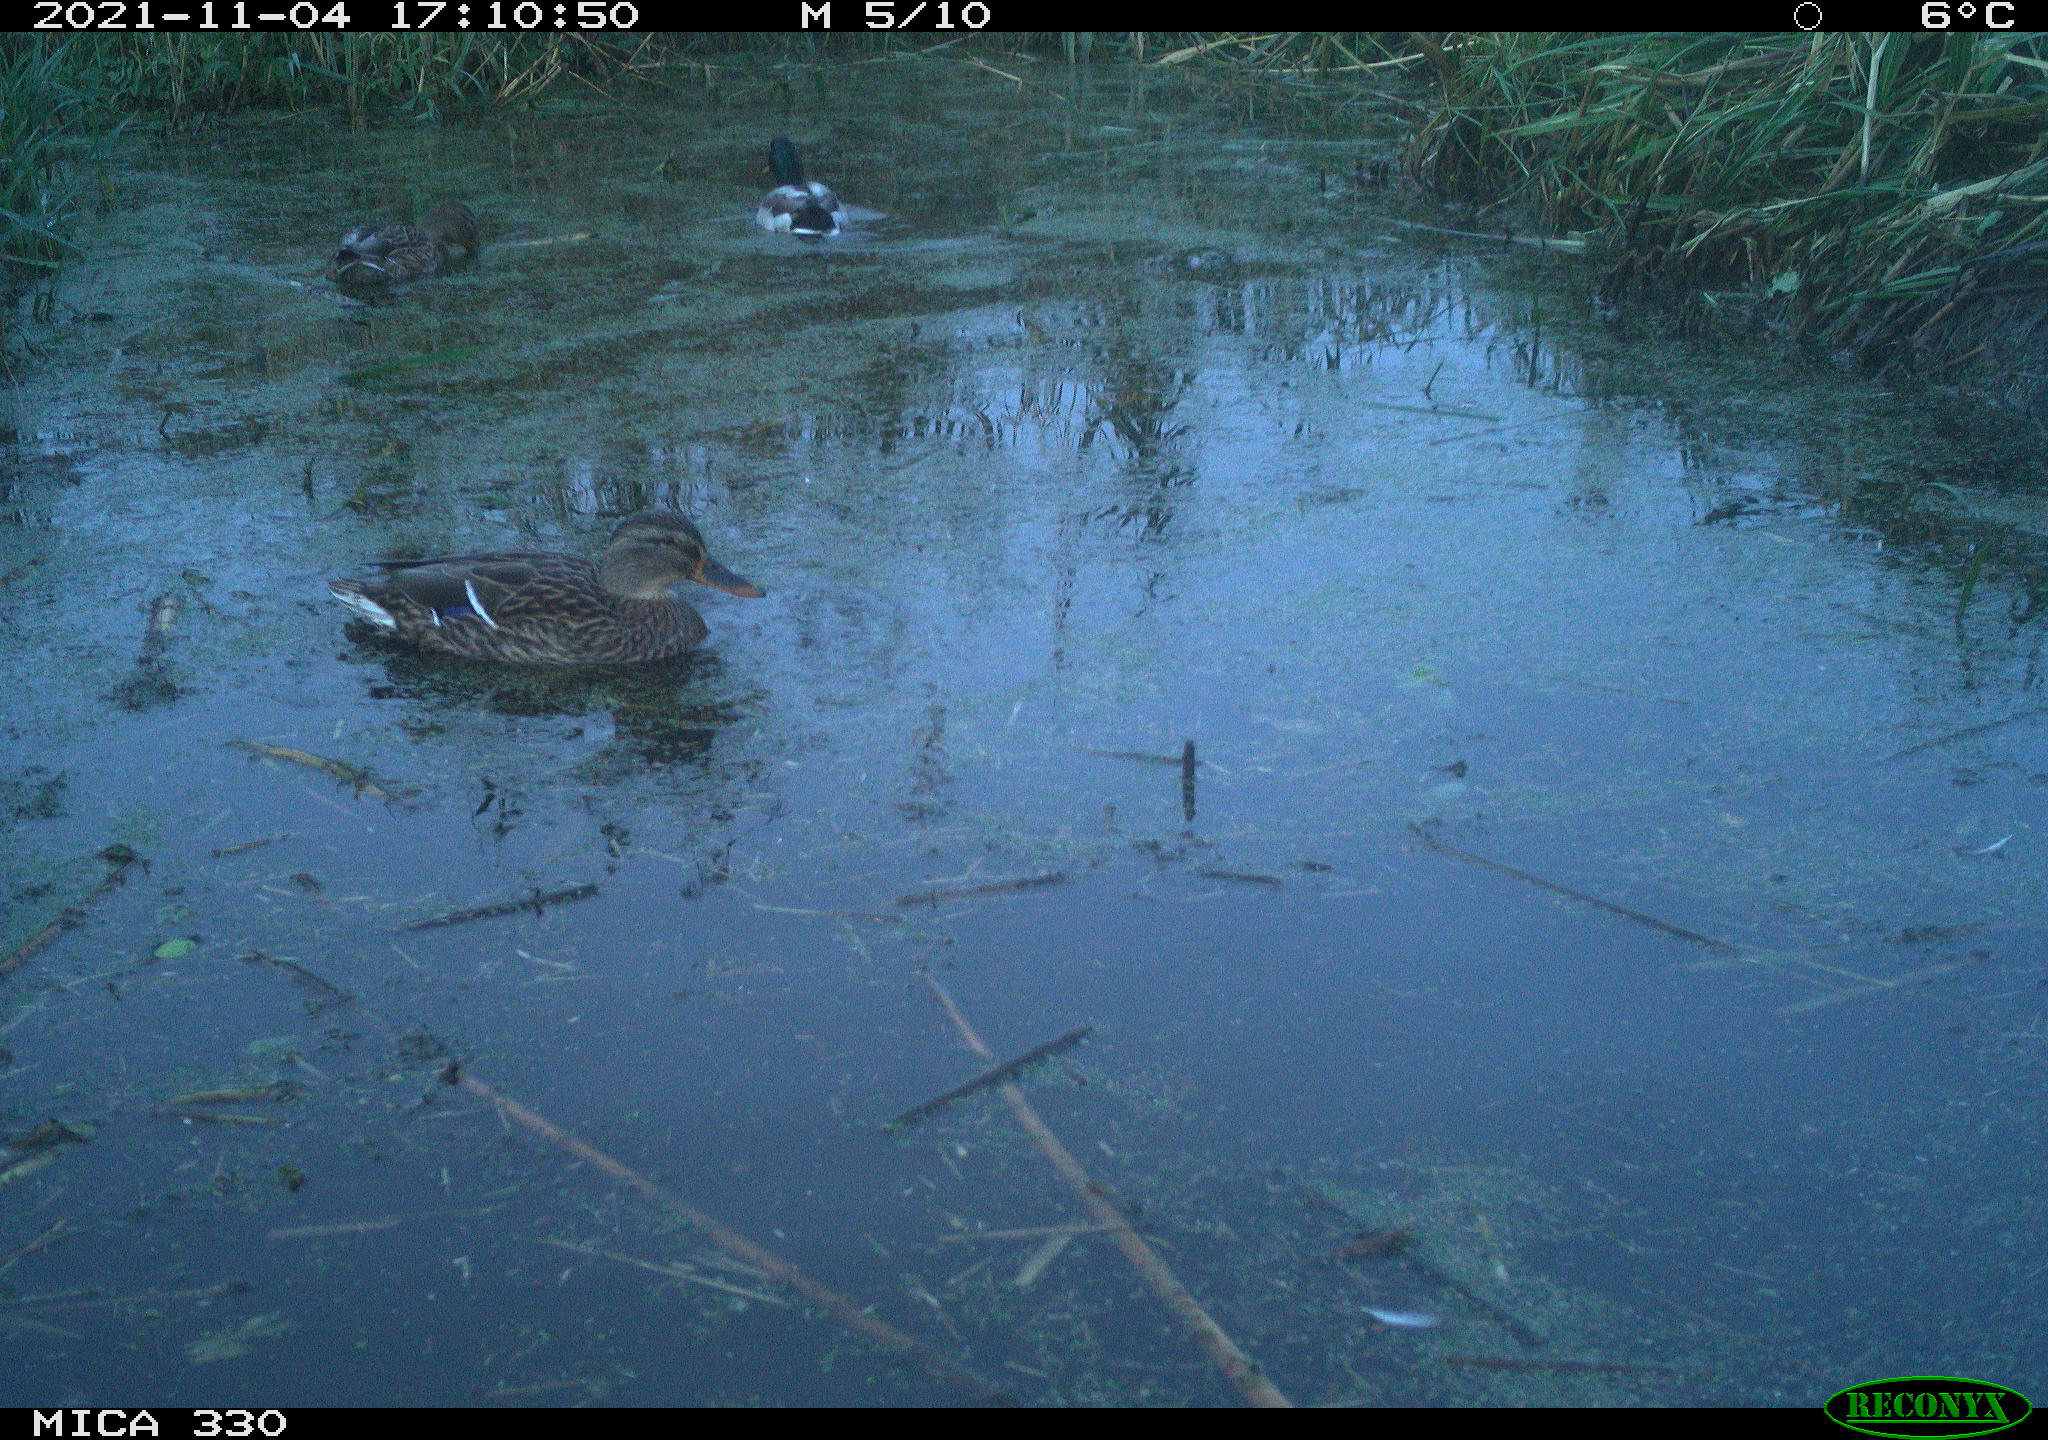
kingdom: Animalia
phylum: Chordata
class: Aves
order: Anseriformes
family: Anatidae
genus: Anas
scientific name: Anas platyrhynchos
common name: Mallard
